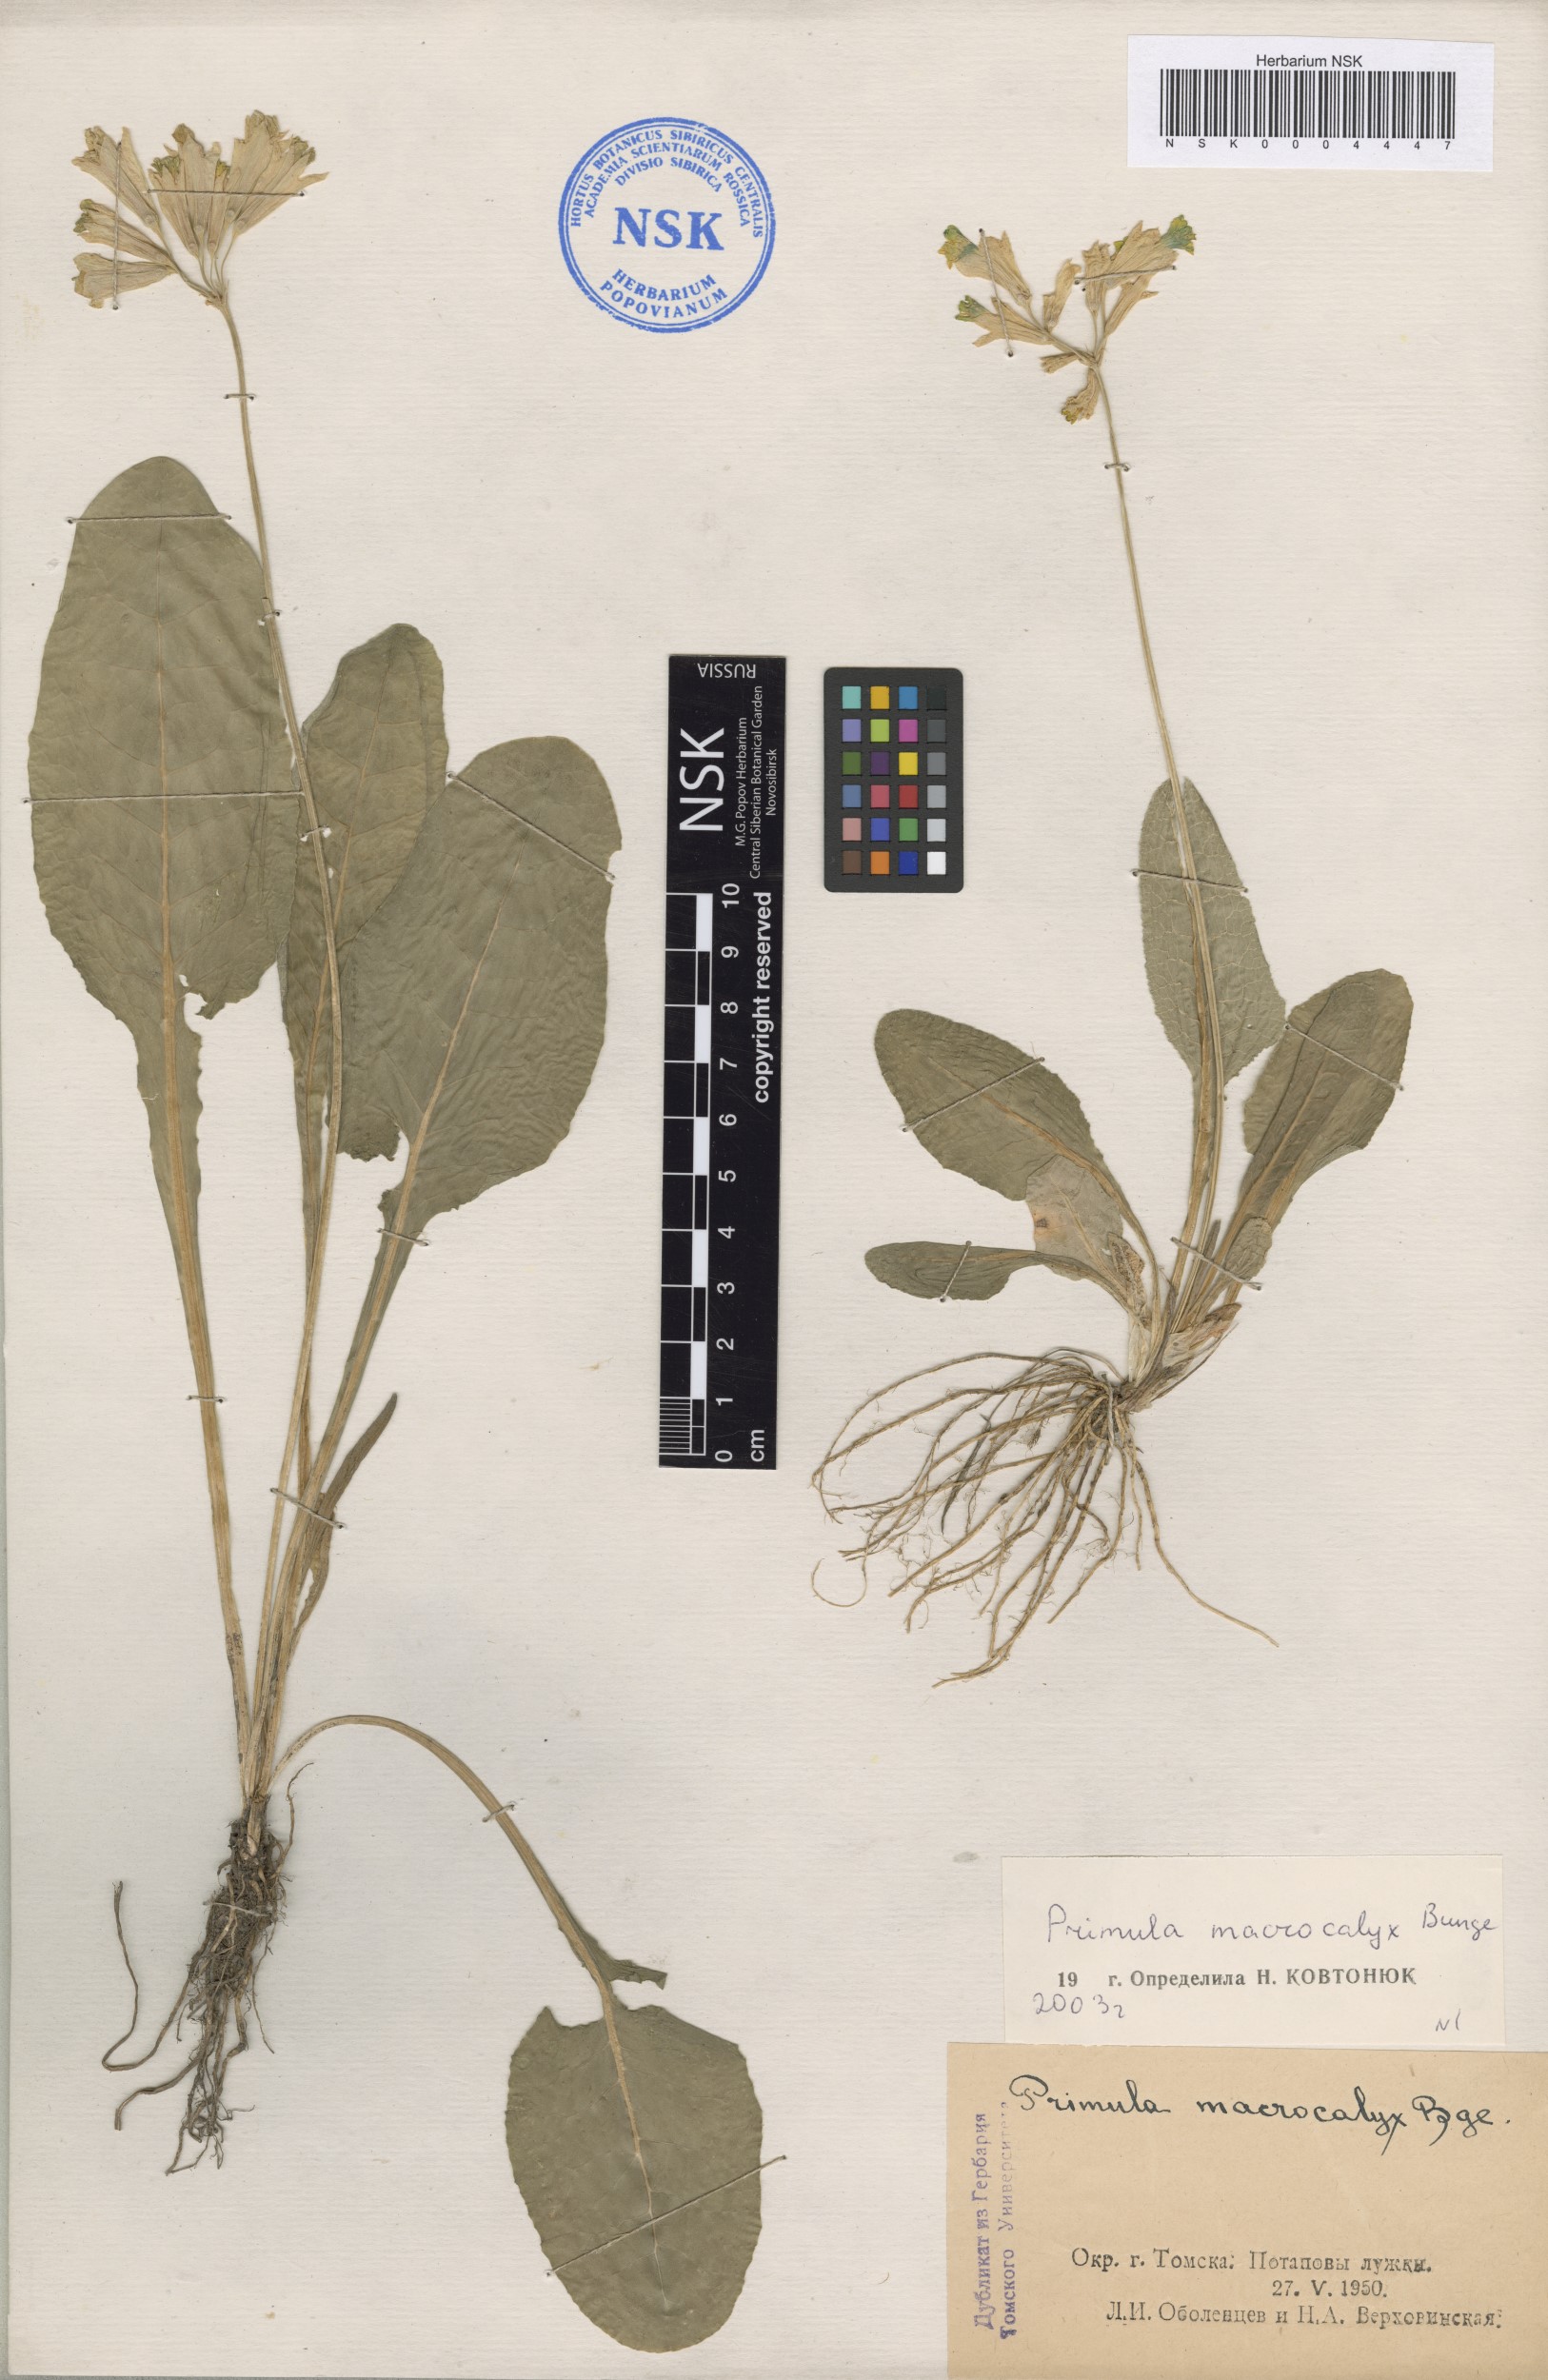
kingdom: Plantae
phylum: Tracheophyta
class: Magnoliopsida
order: Ericales
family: Primulaceae
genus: Primula
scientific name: Primula veris
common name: Cowslip
